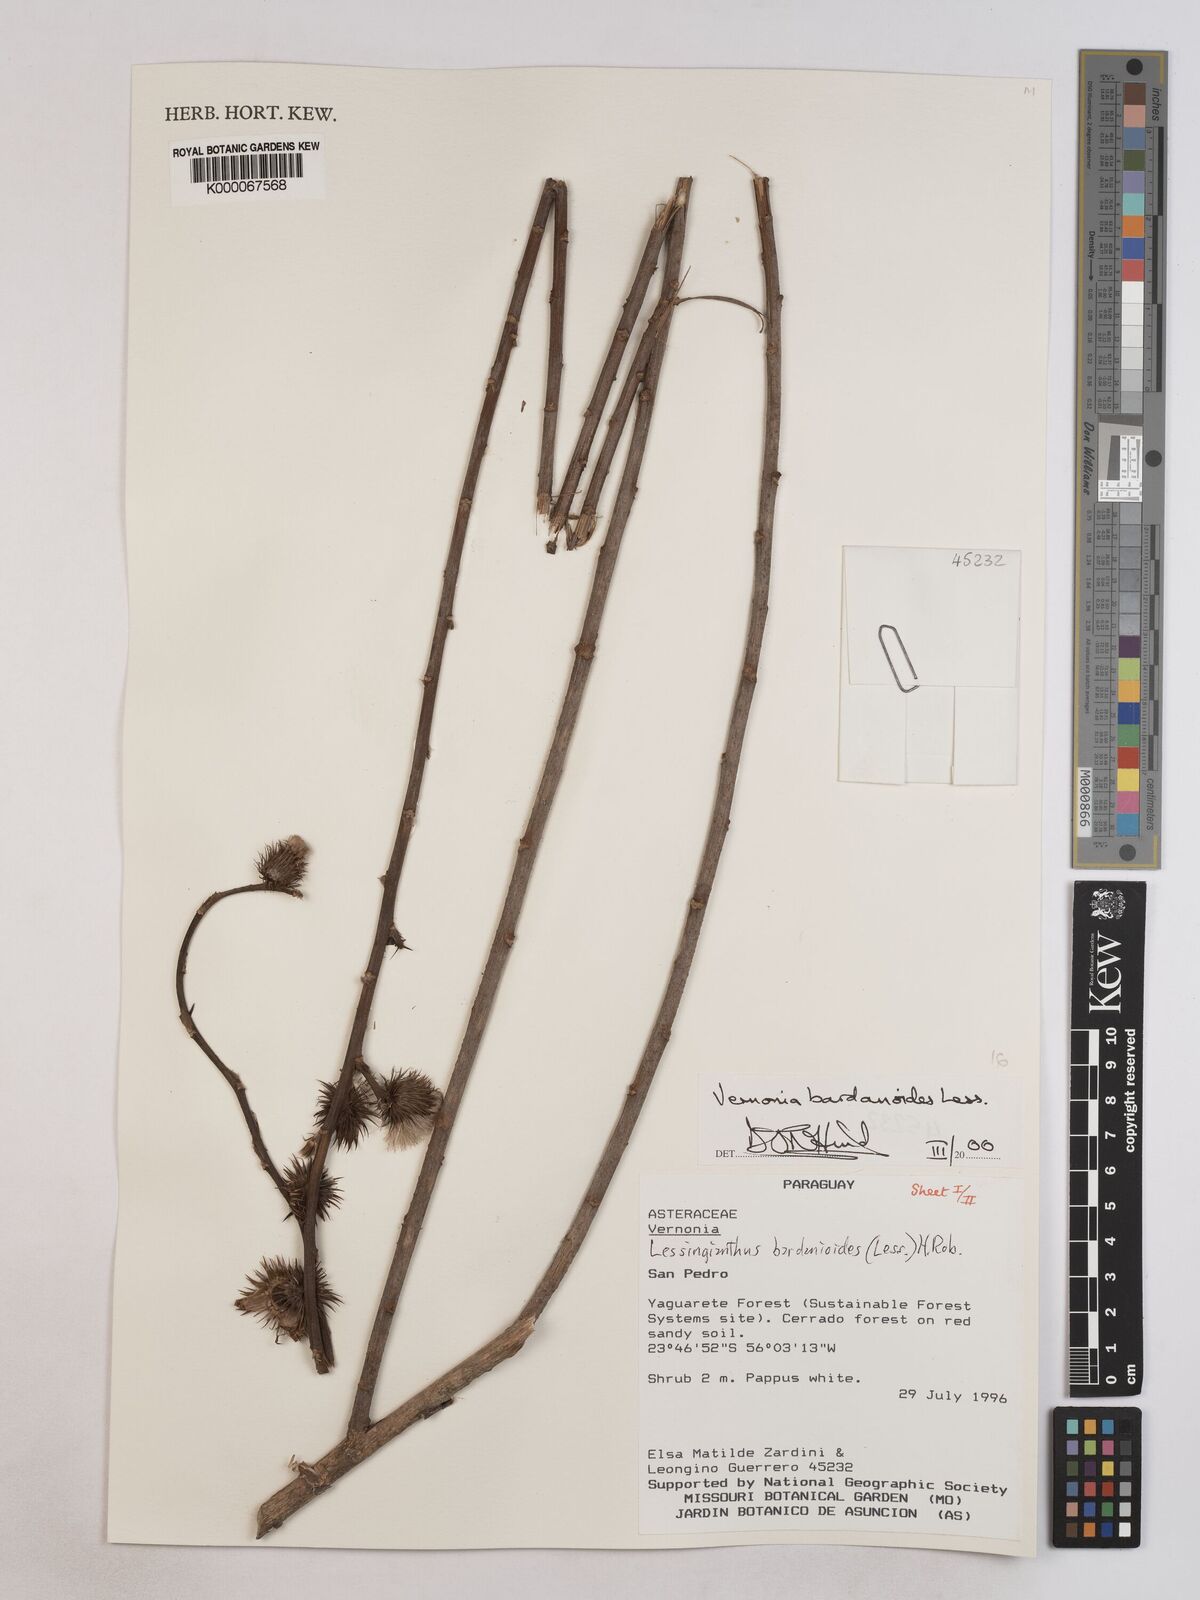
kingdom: Plantae
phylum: Tracheophyta
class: Magnoliopsida
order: Asterales
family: Asteraceae
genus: Lessingianthus
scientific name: Lessingianthus bardanioides
